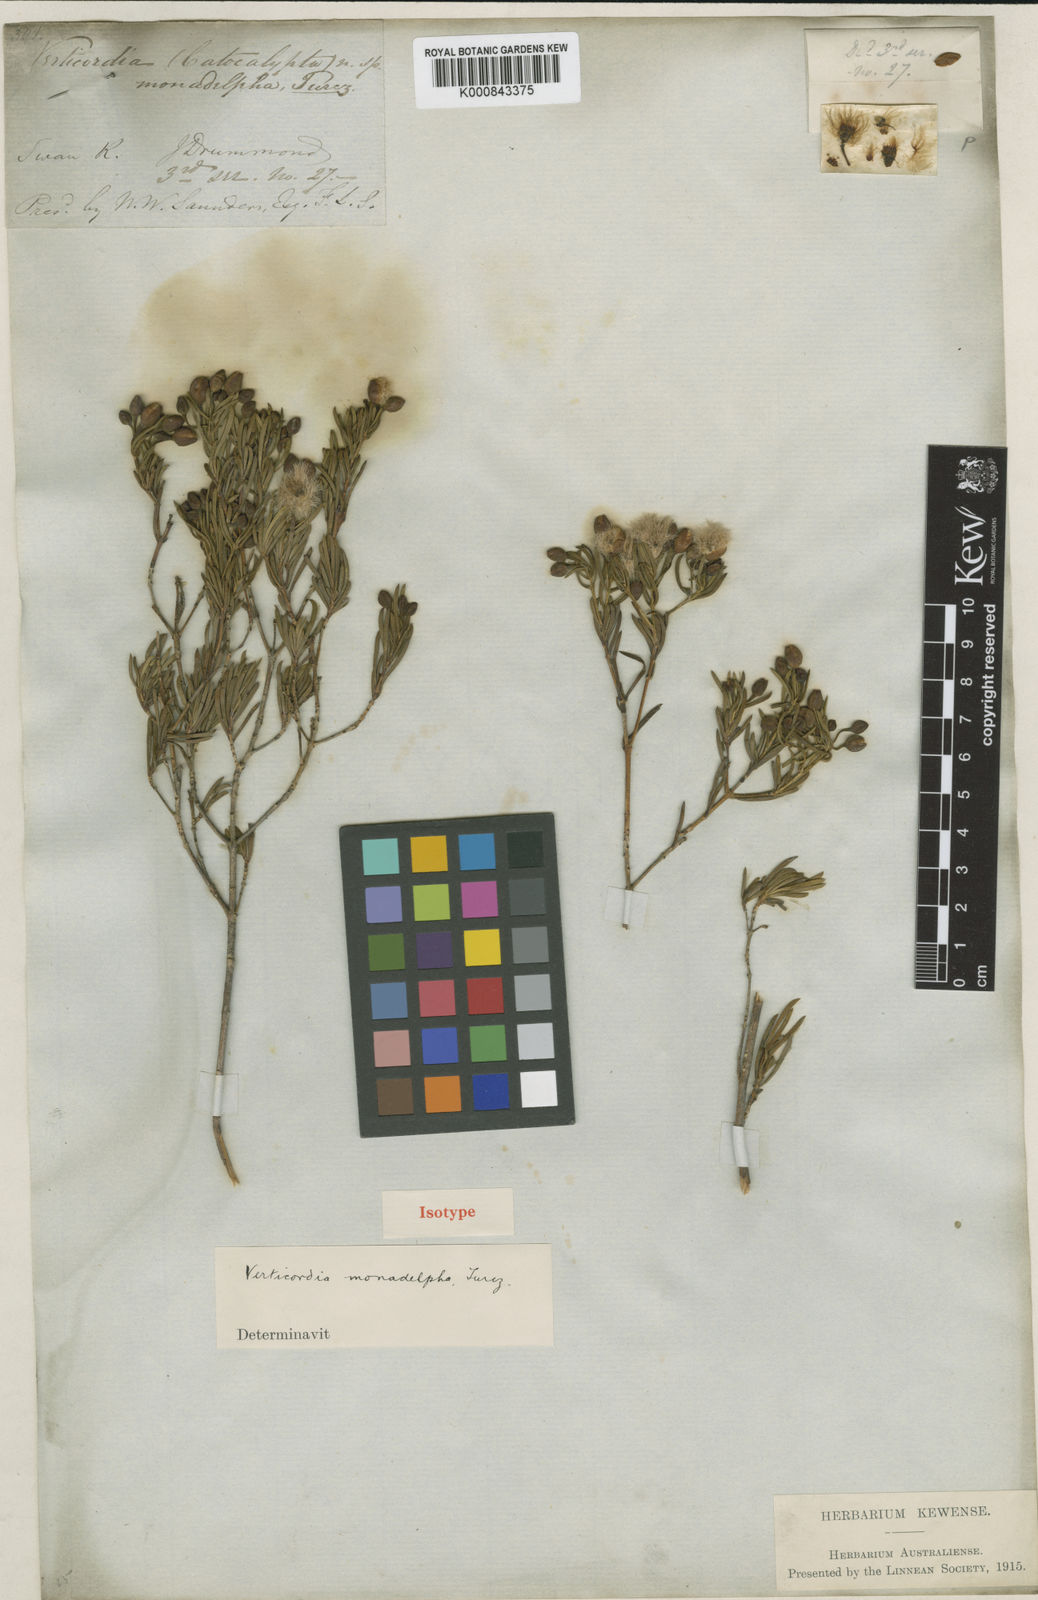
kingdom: Plantae
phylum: Tracheophyta
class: Magnoliopsida
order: Myrtales
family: Myrtaceae
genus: Verticordia
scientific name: Verticordia monadelpha
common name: Woolly feather-flower
